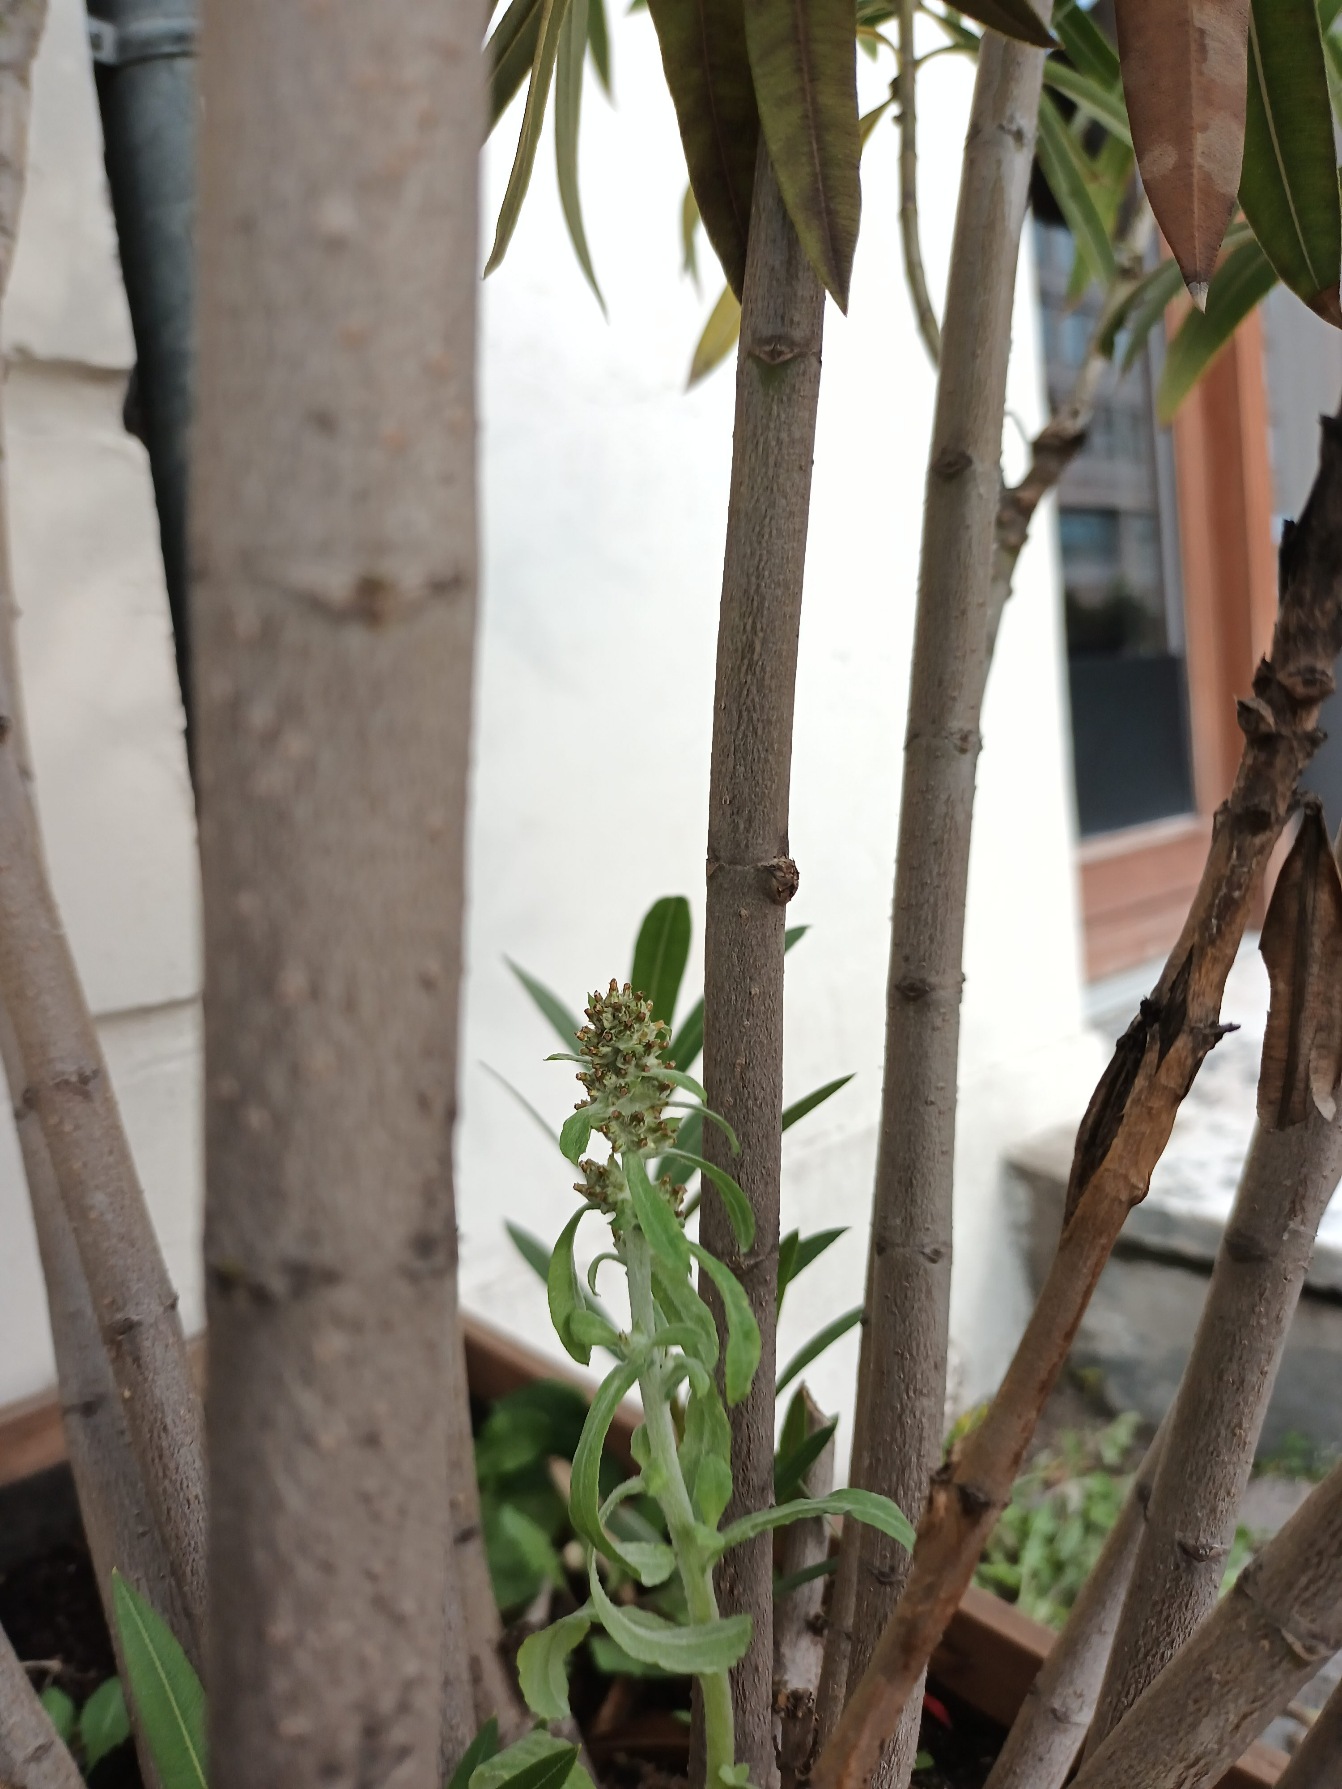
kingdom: Plantae
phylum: Tracheophyta
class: Magnoliopsida
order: Asterales
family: Asteraceae
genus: Gamochaeta
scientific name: Gamochaeta pensylvanica
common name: Vej-evighedsblomst
